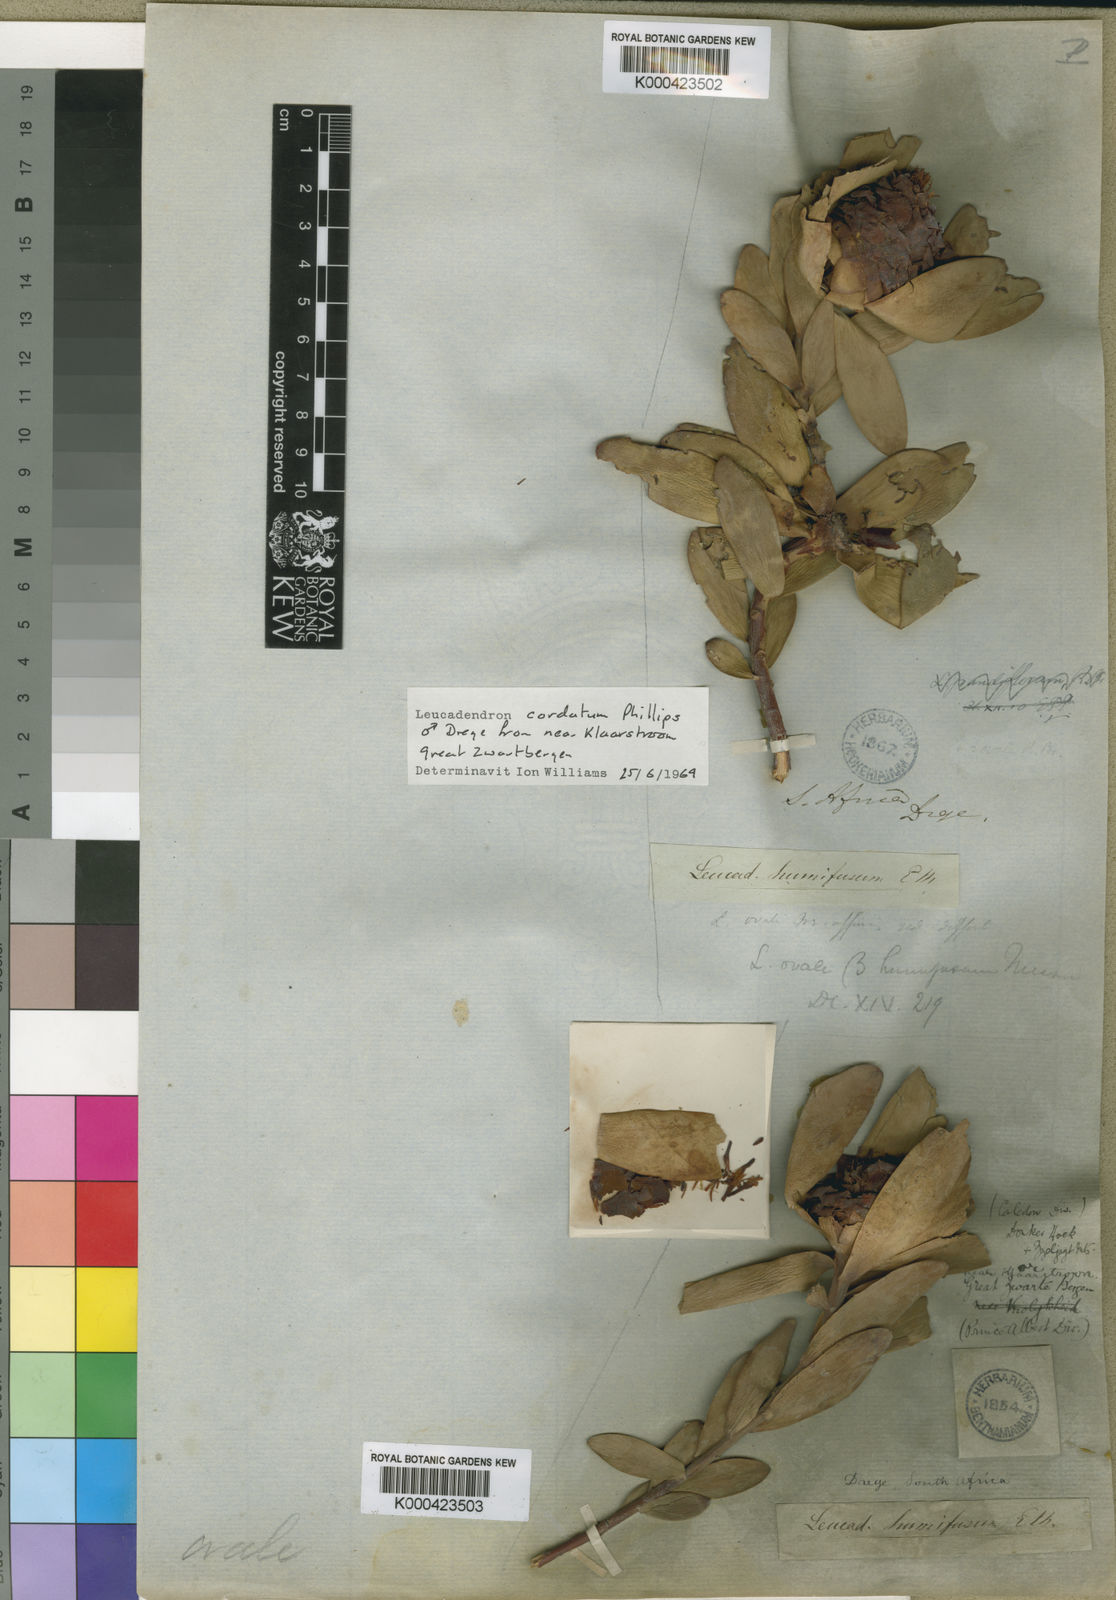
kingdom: Plantae
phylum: Tracheophyta
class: Magnoliopsida
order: Proteales
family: Proteaceae
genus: Leucadendron
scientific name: Leucadendron cordatum
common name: Droopy conebush
